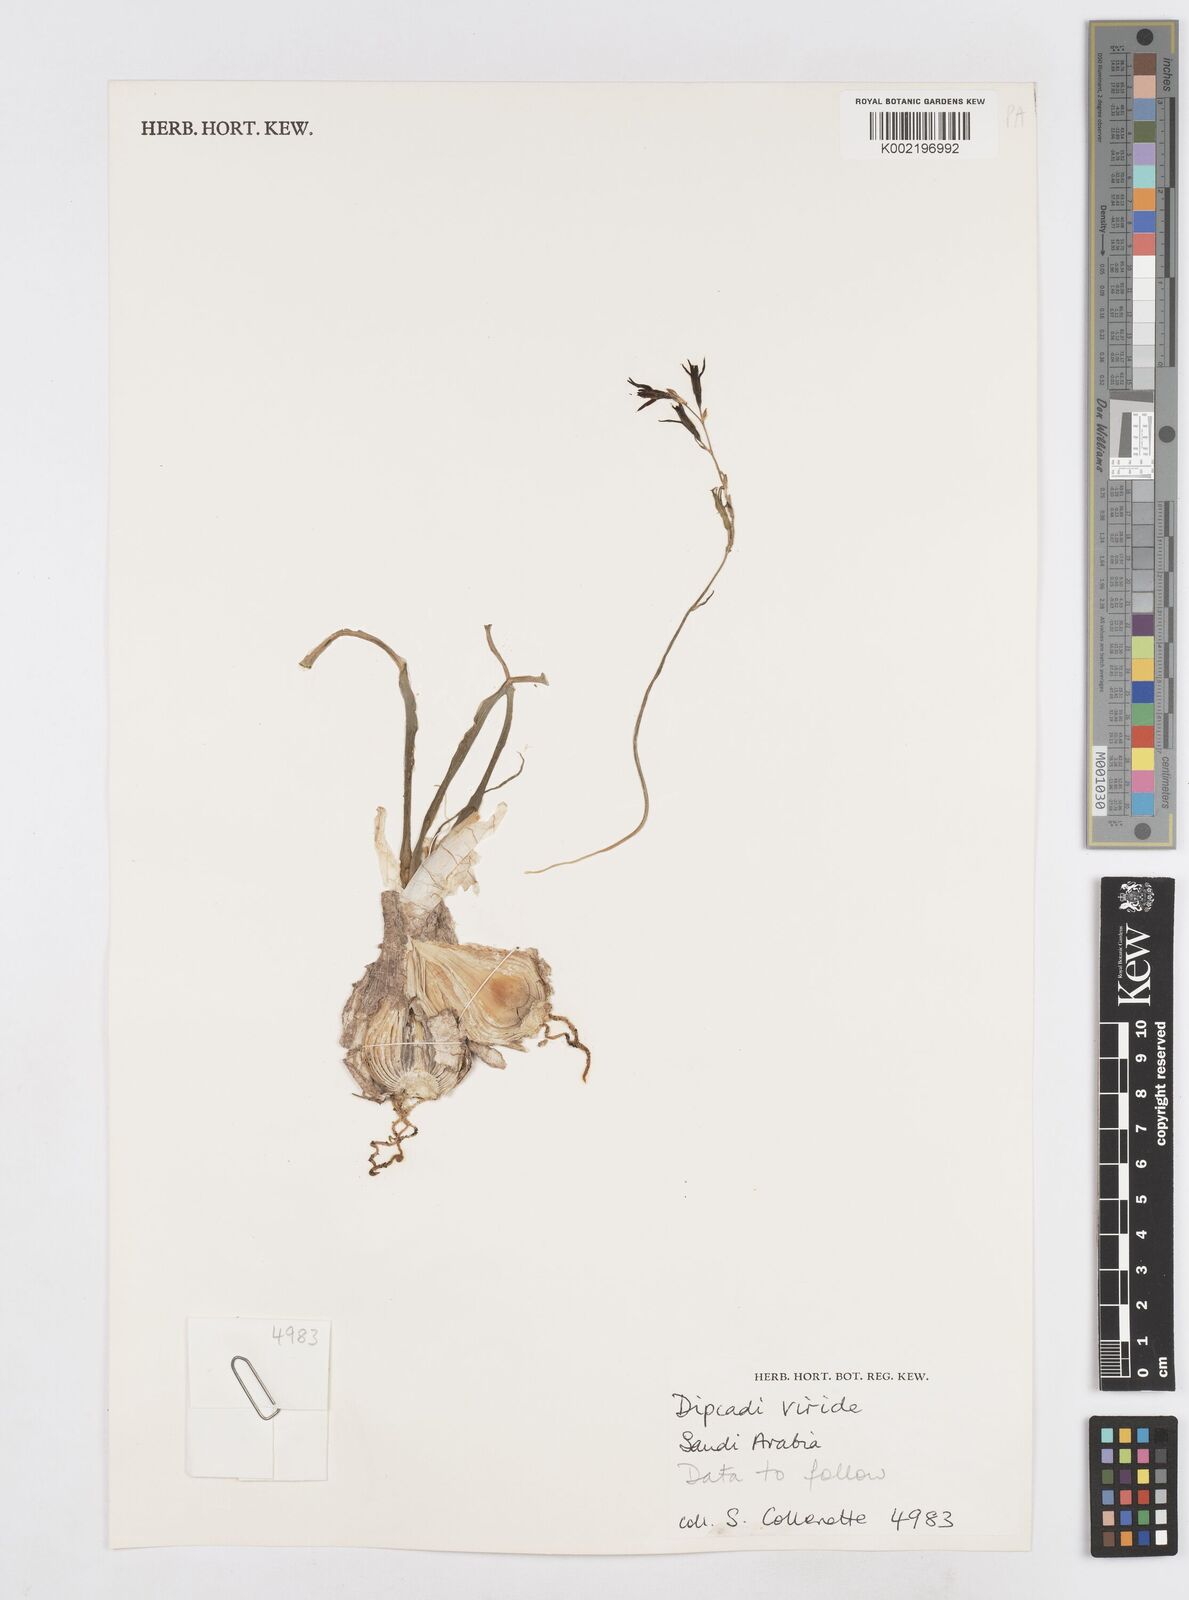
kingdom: Plantae
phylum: Tracheophyta
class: Liliopsida
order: Asparagales
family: Asparagaceae
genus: Dipcadi
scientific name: Dipcadi viride
